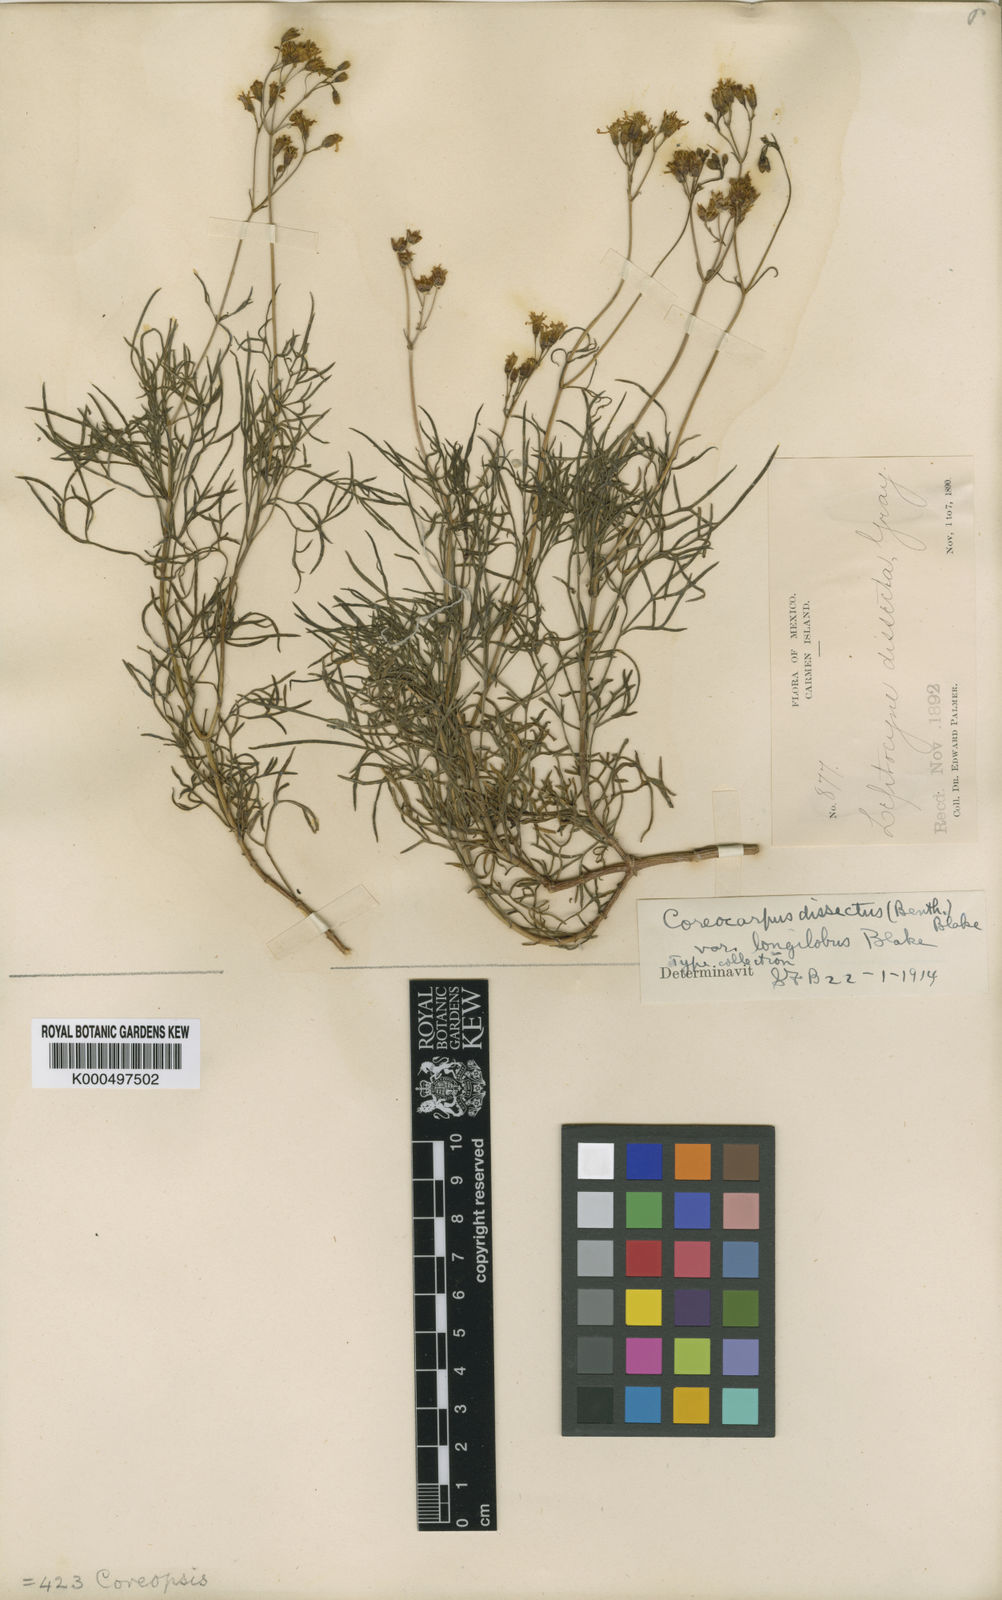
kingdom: Plantae
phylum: Tracheophyta
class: Magnoliopsida
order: Asterales
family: Asteraceae
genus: Coreocarpus
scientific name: Coreocarpus dissectus
